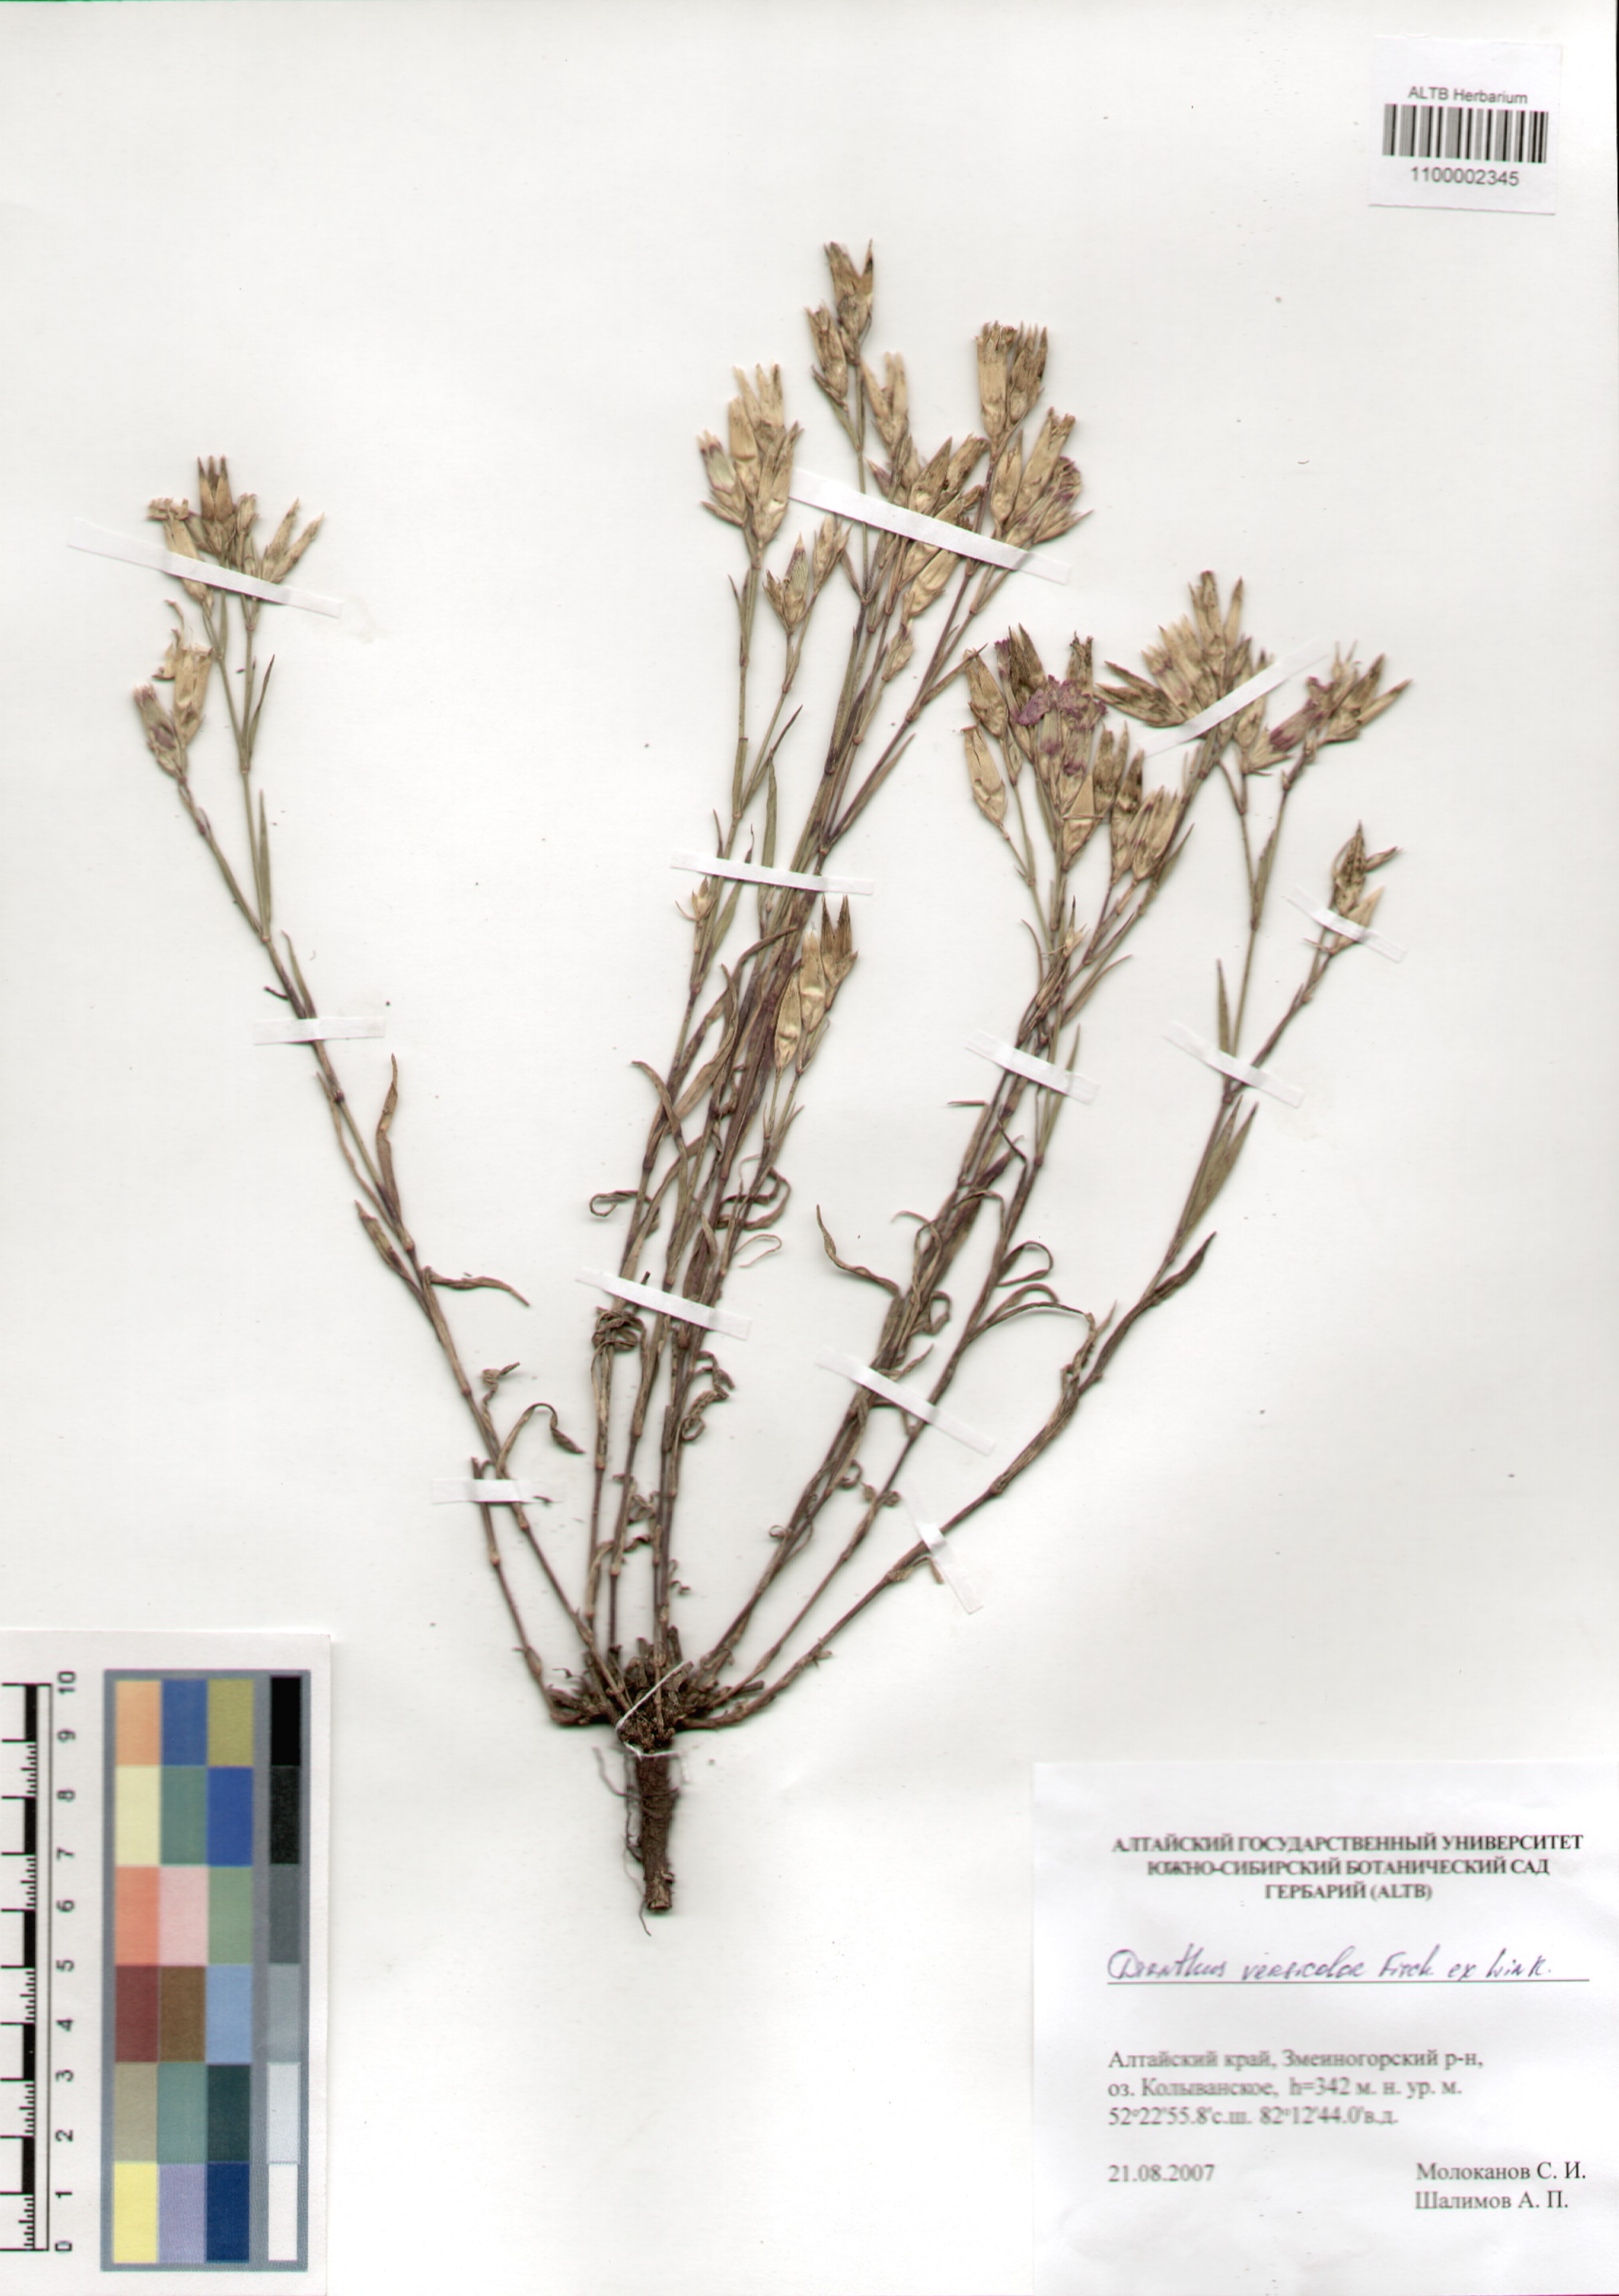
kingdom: Plantae
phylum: Tracheophyta
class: Magnoliopsida
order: Caryophyllales
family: Caryophyllaceae
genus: Dianthus
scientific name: Dianthus chinensis
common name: Rainbow pink
